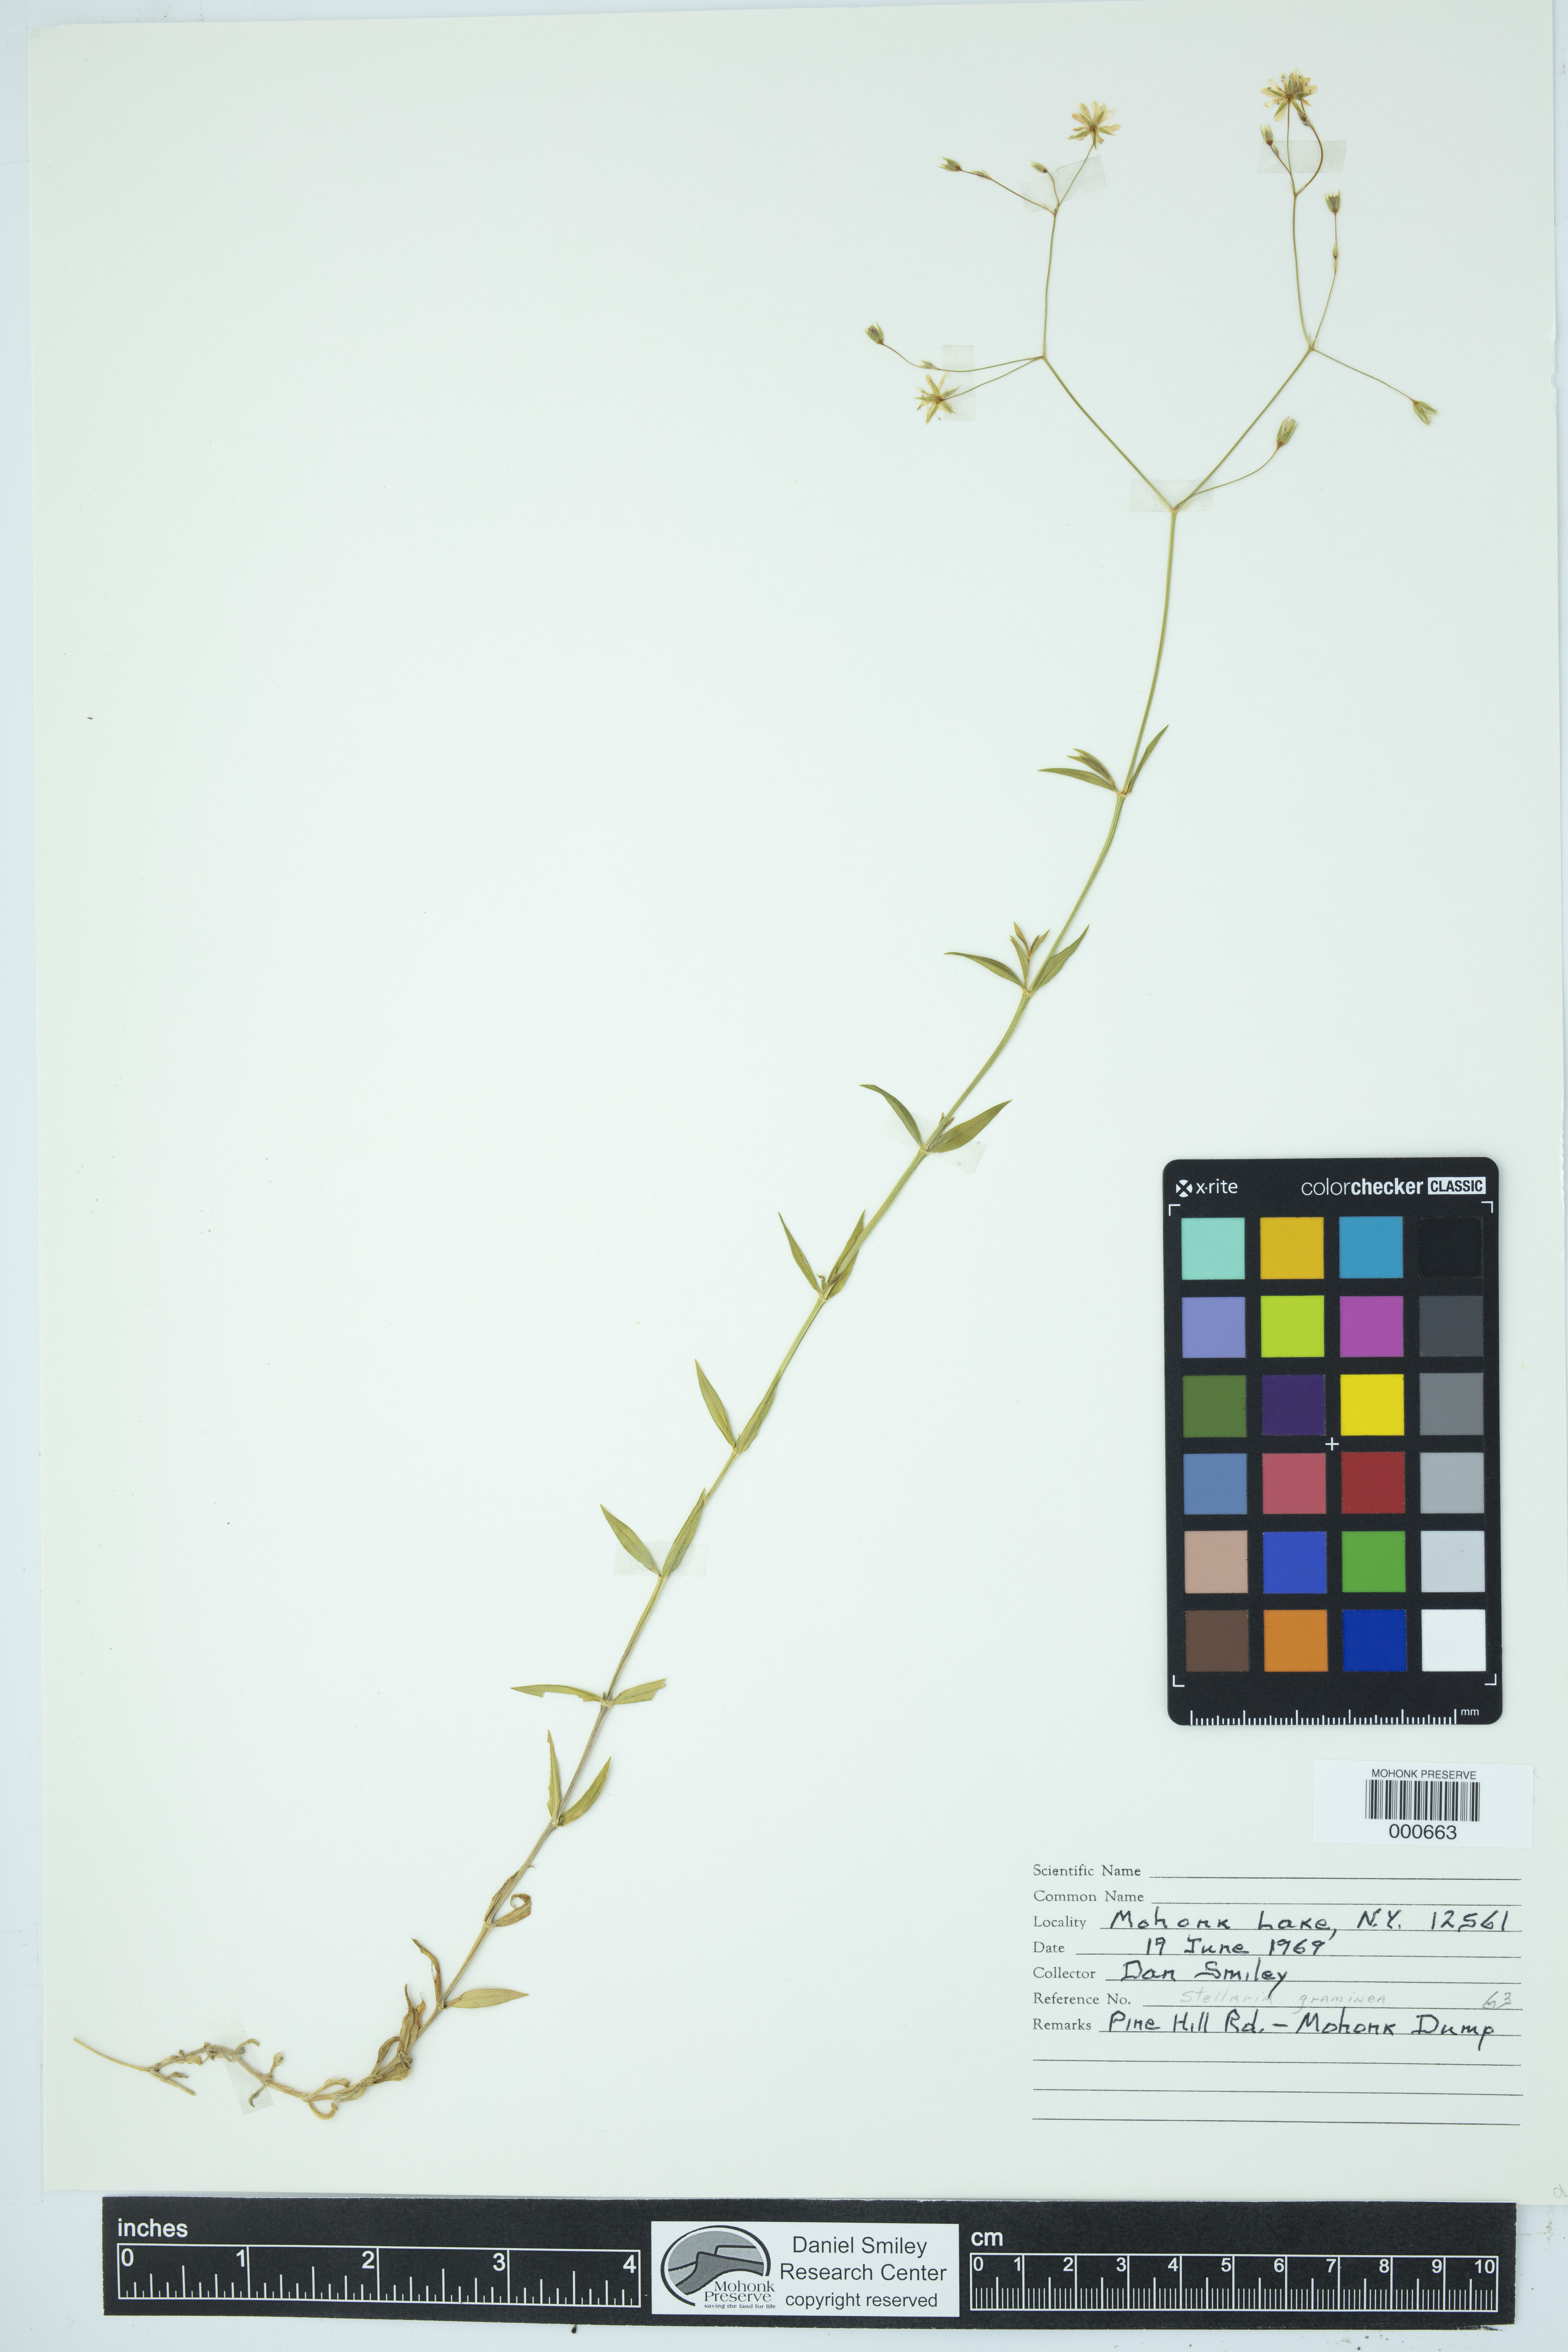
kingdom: Plantae
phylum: Tracheophyta
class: Magnoliopsida
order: Caryophyllales
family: Caryophyllaceae
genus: Stellaria
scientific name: Stellaria graminea
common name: Grass-like starwort
